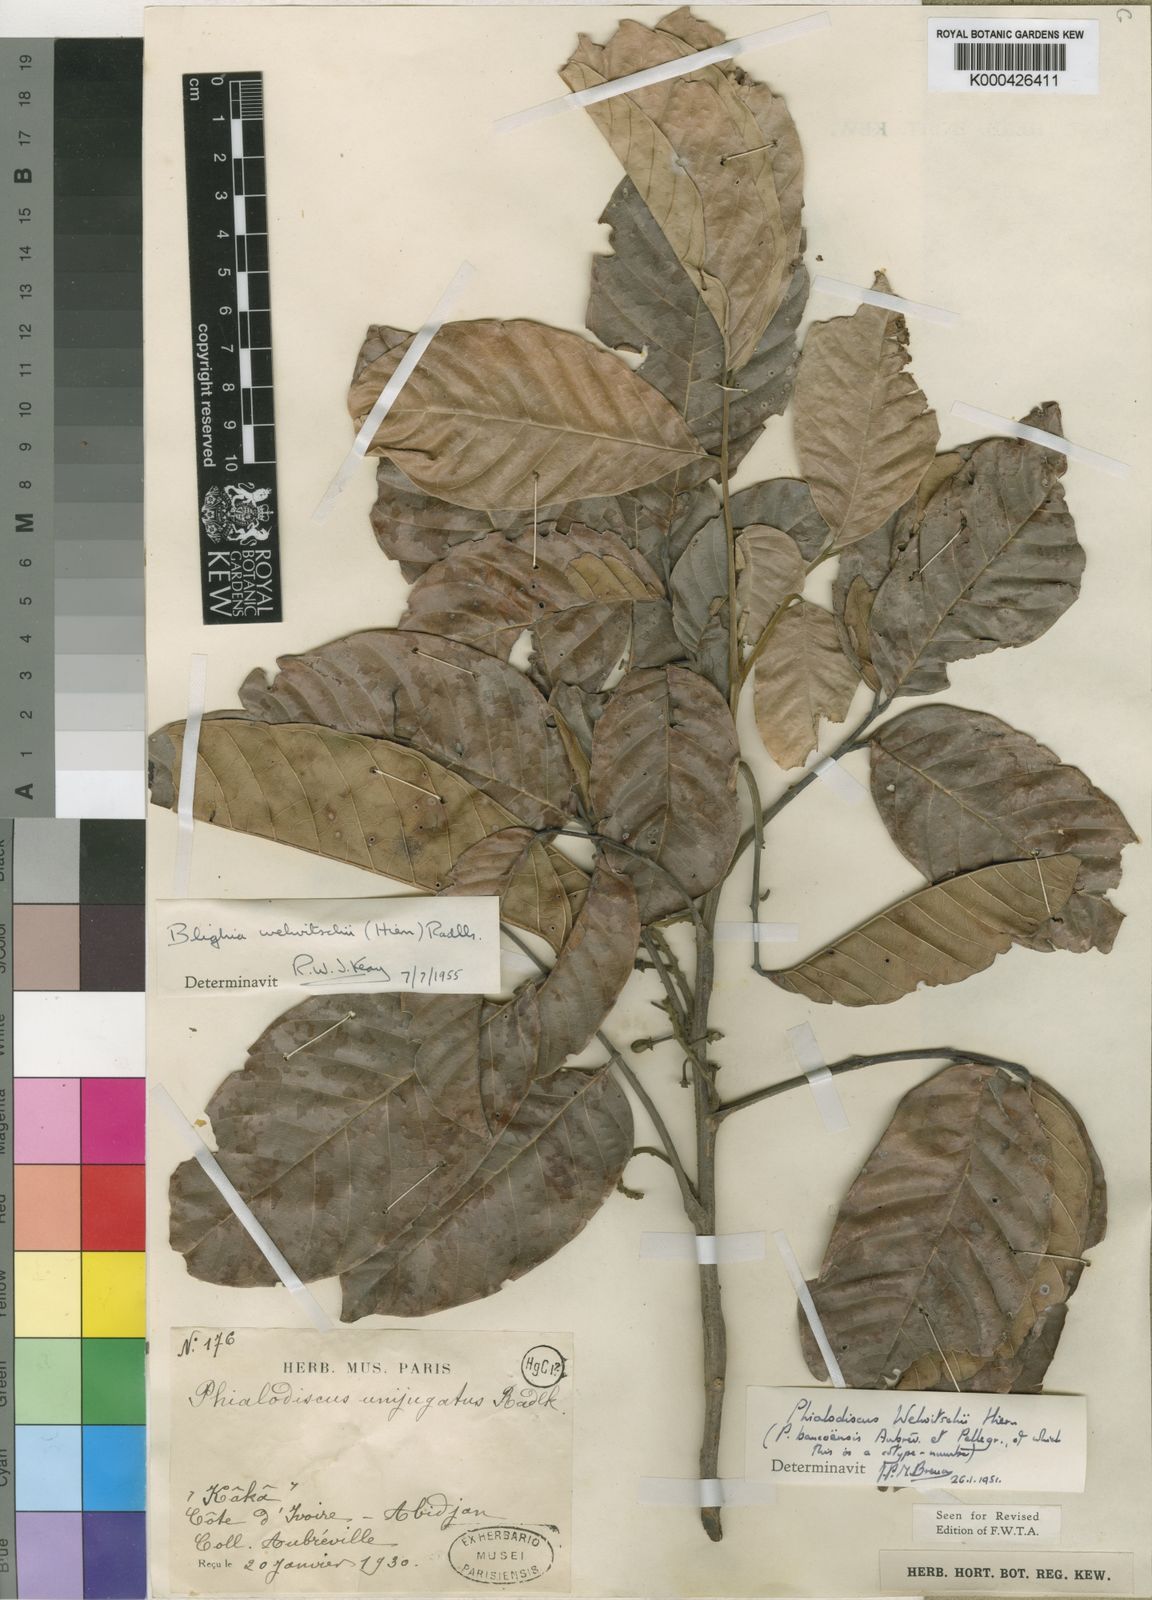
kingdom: Plantae
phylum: Tracheophyta
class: Magnoliopsida
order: Sapindales
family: Sapindaceae
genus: Blighia
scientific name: Blighia welwitschii
